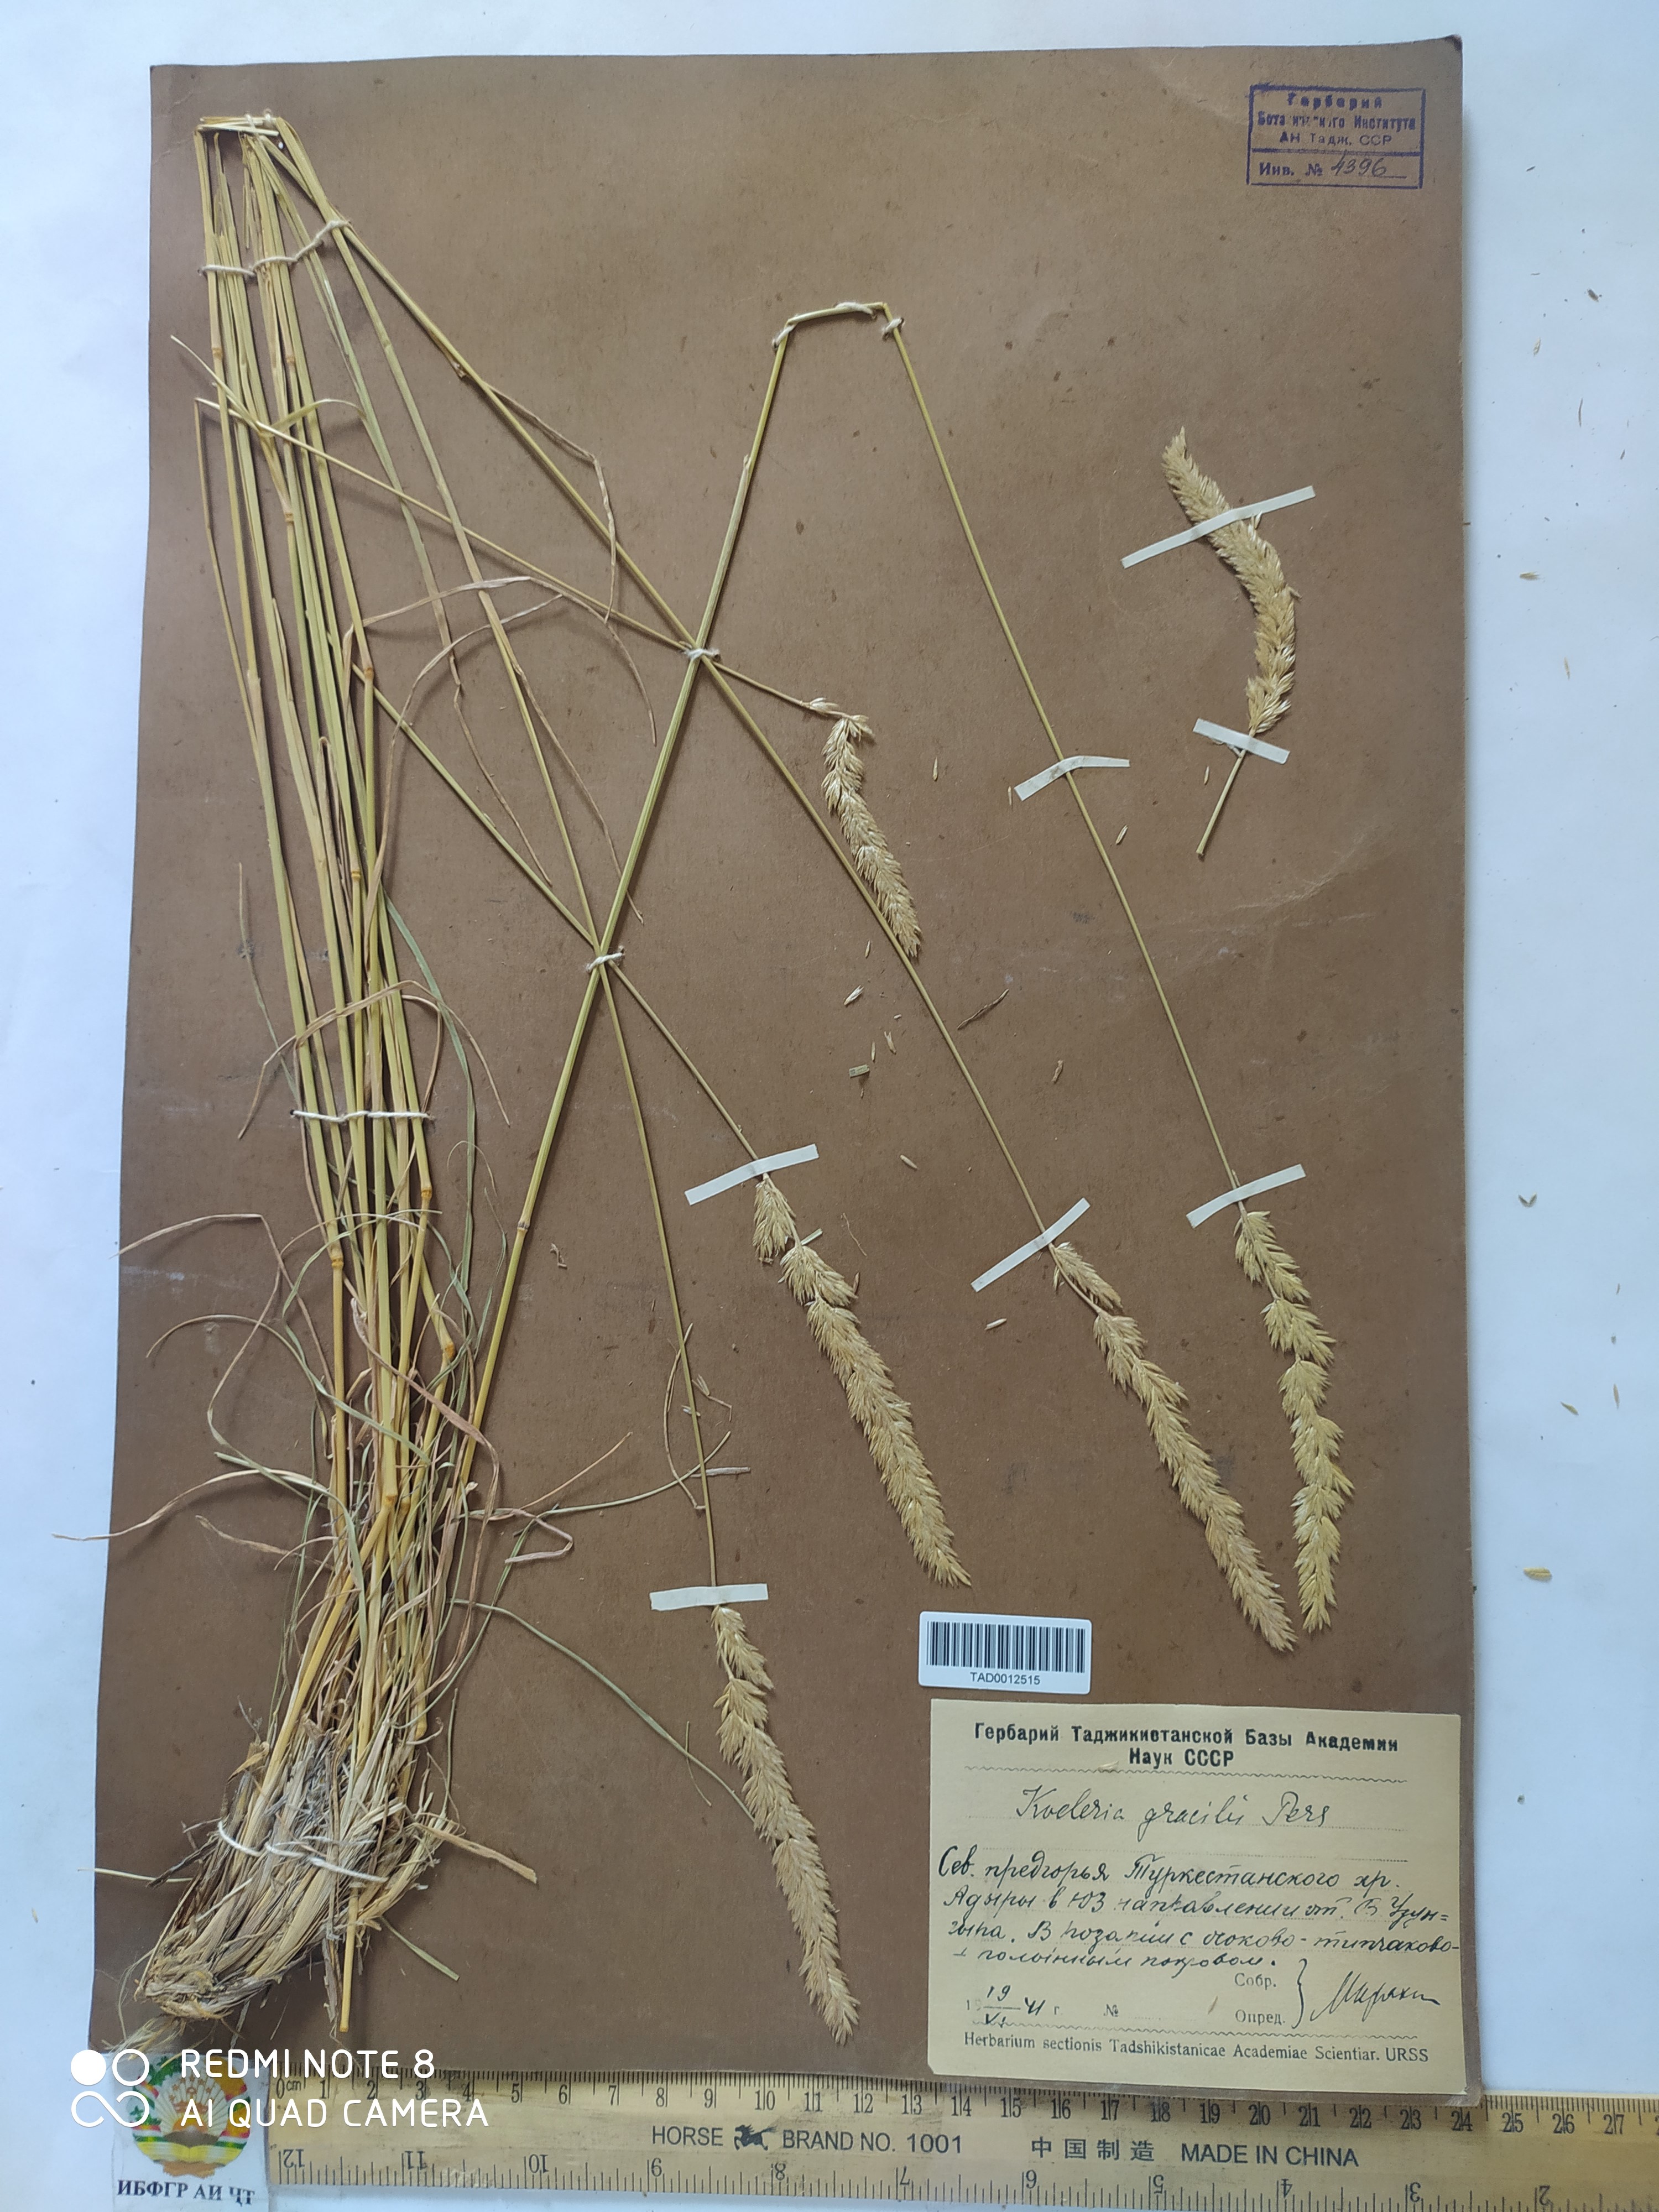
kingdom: Plantae
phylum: Tracheophyta
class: Liliopsida
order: Poales
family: Poaceae
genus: Koeleria
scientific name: Koeleria macrantha
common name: Crested hair-grass
